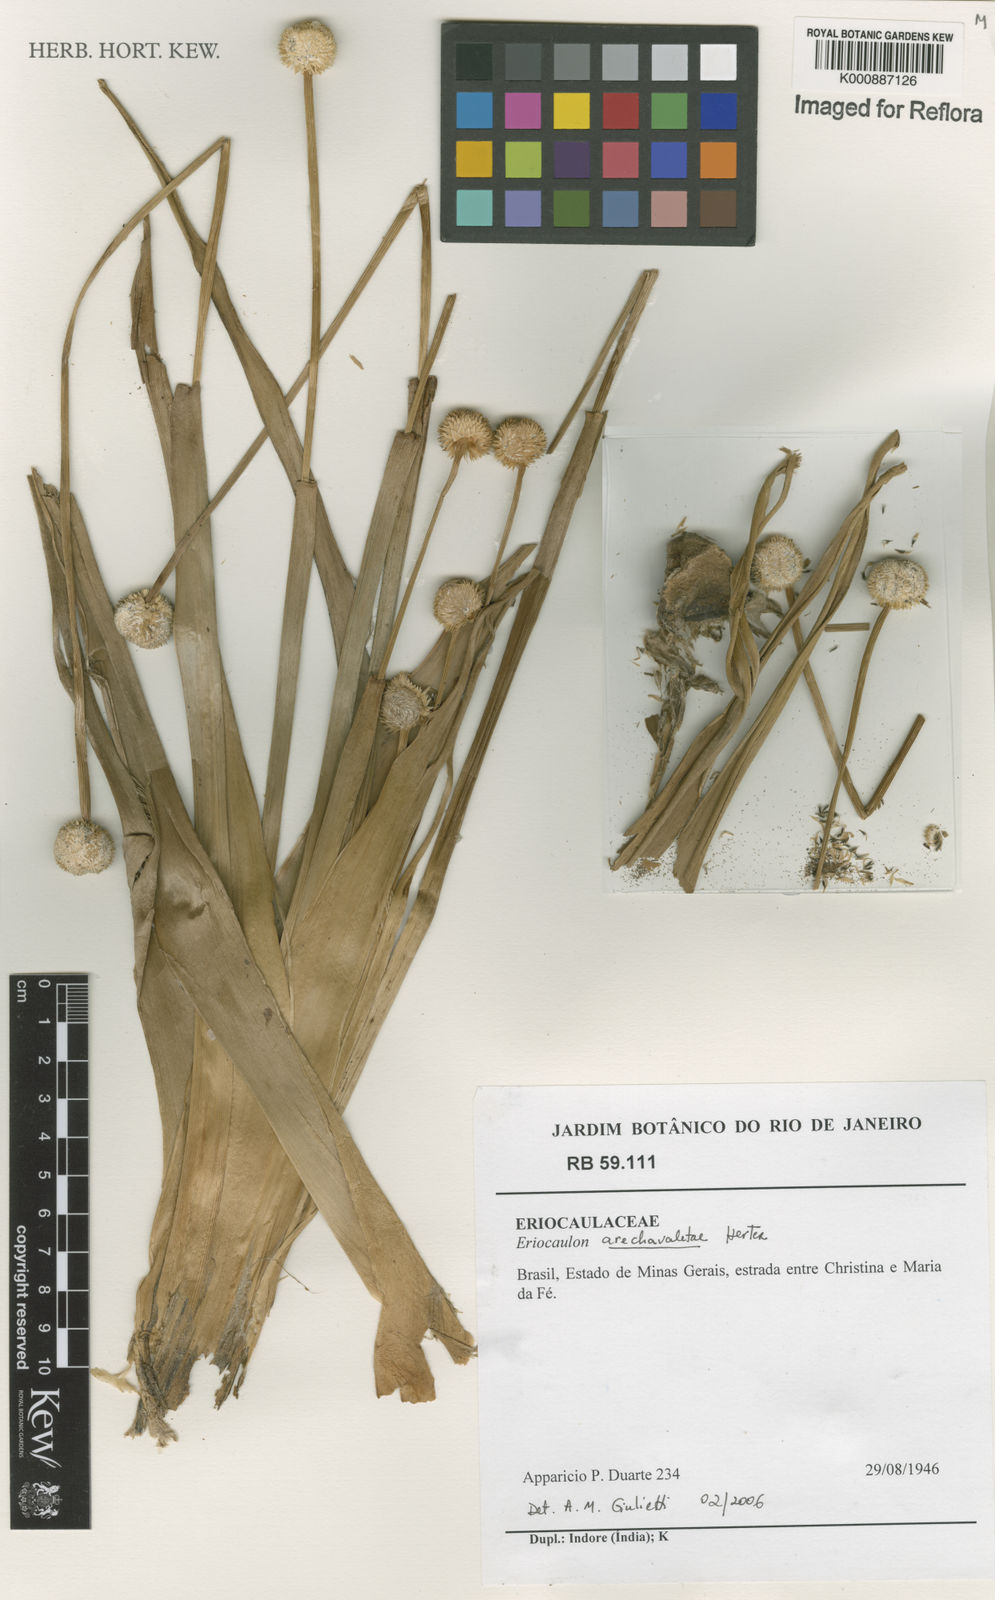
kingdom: Plantae
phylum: Tracheophyta
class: Liliopsida
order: Poales
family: Eriocaulaceae
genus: Eriocaulon
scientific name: Eriocaulon arechavaletae
